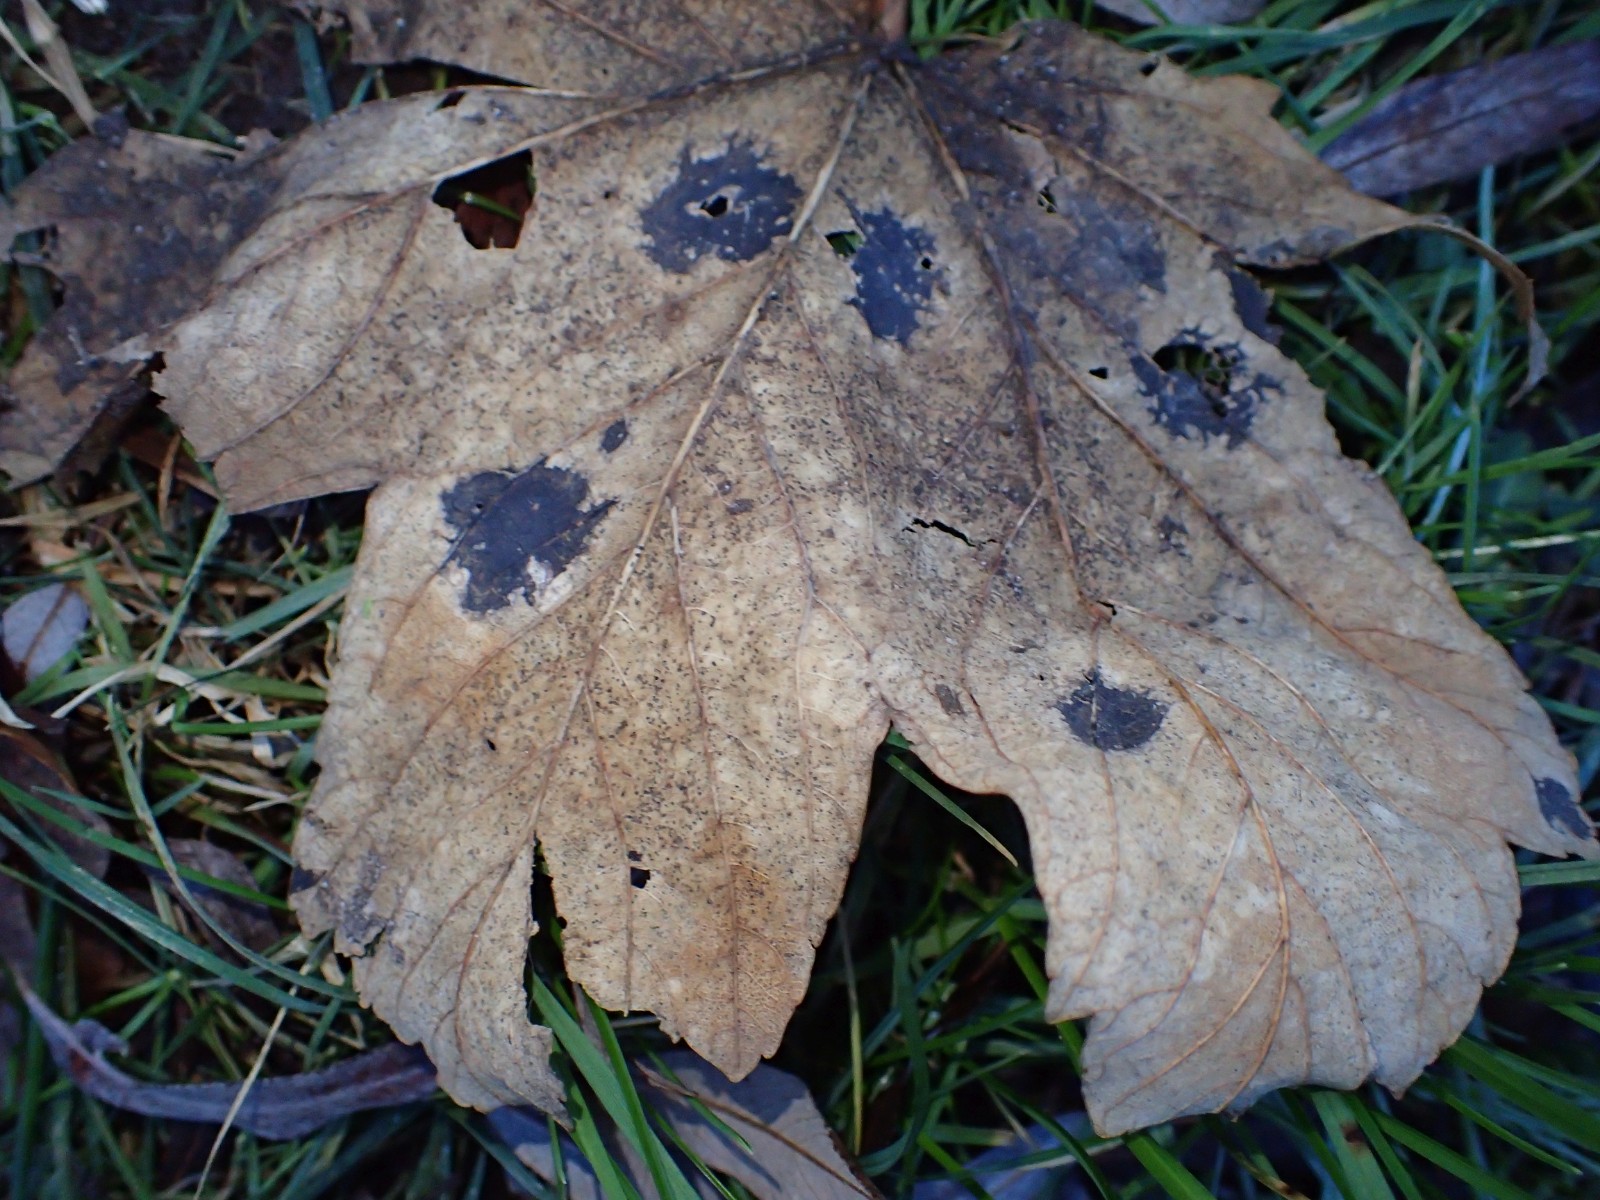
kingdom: Fungi
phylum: Ascomycota
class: Leotiomycetes
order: Rhytismatales
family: Rhytismataceae
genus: Rhytisma
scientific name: Rhytisma acerinum
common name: ahorn-rynkeplet
